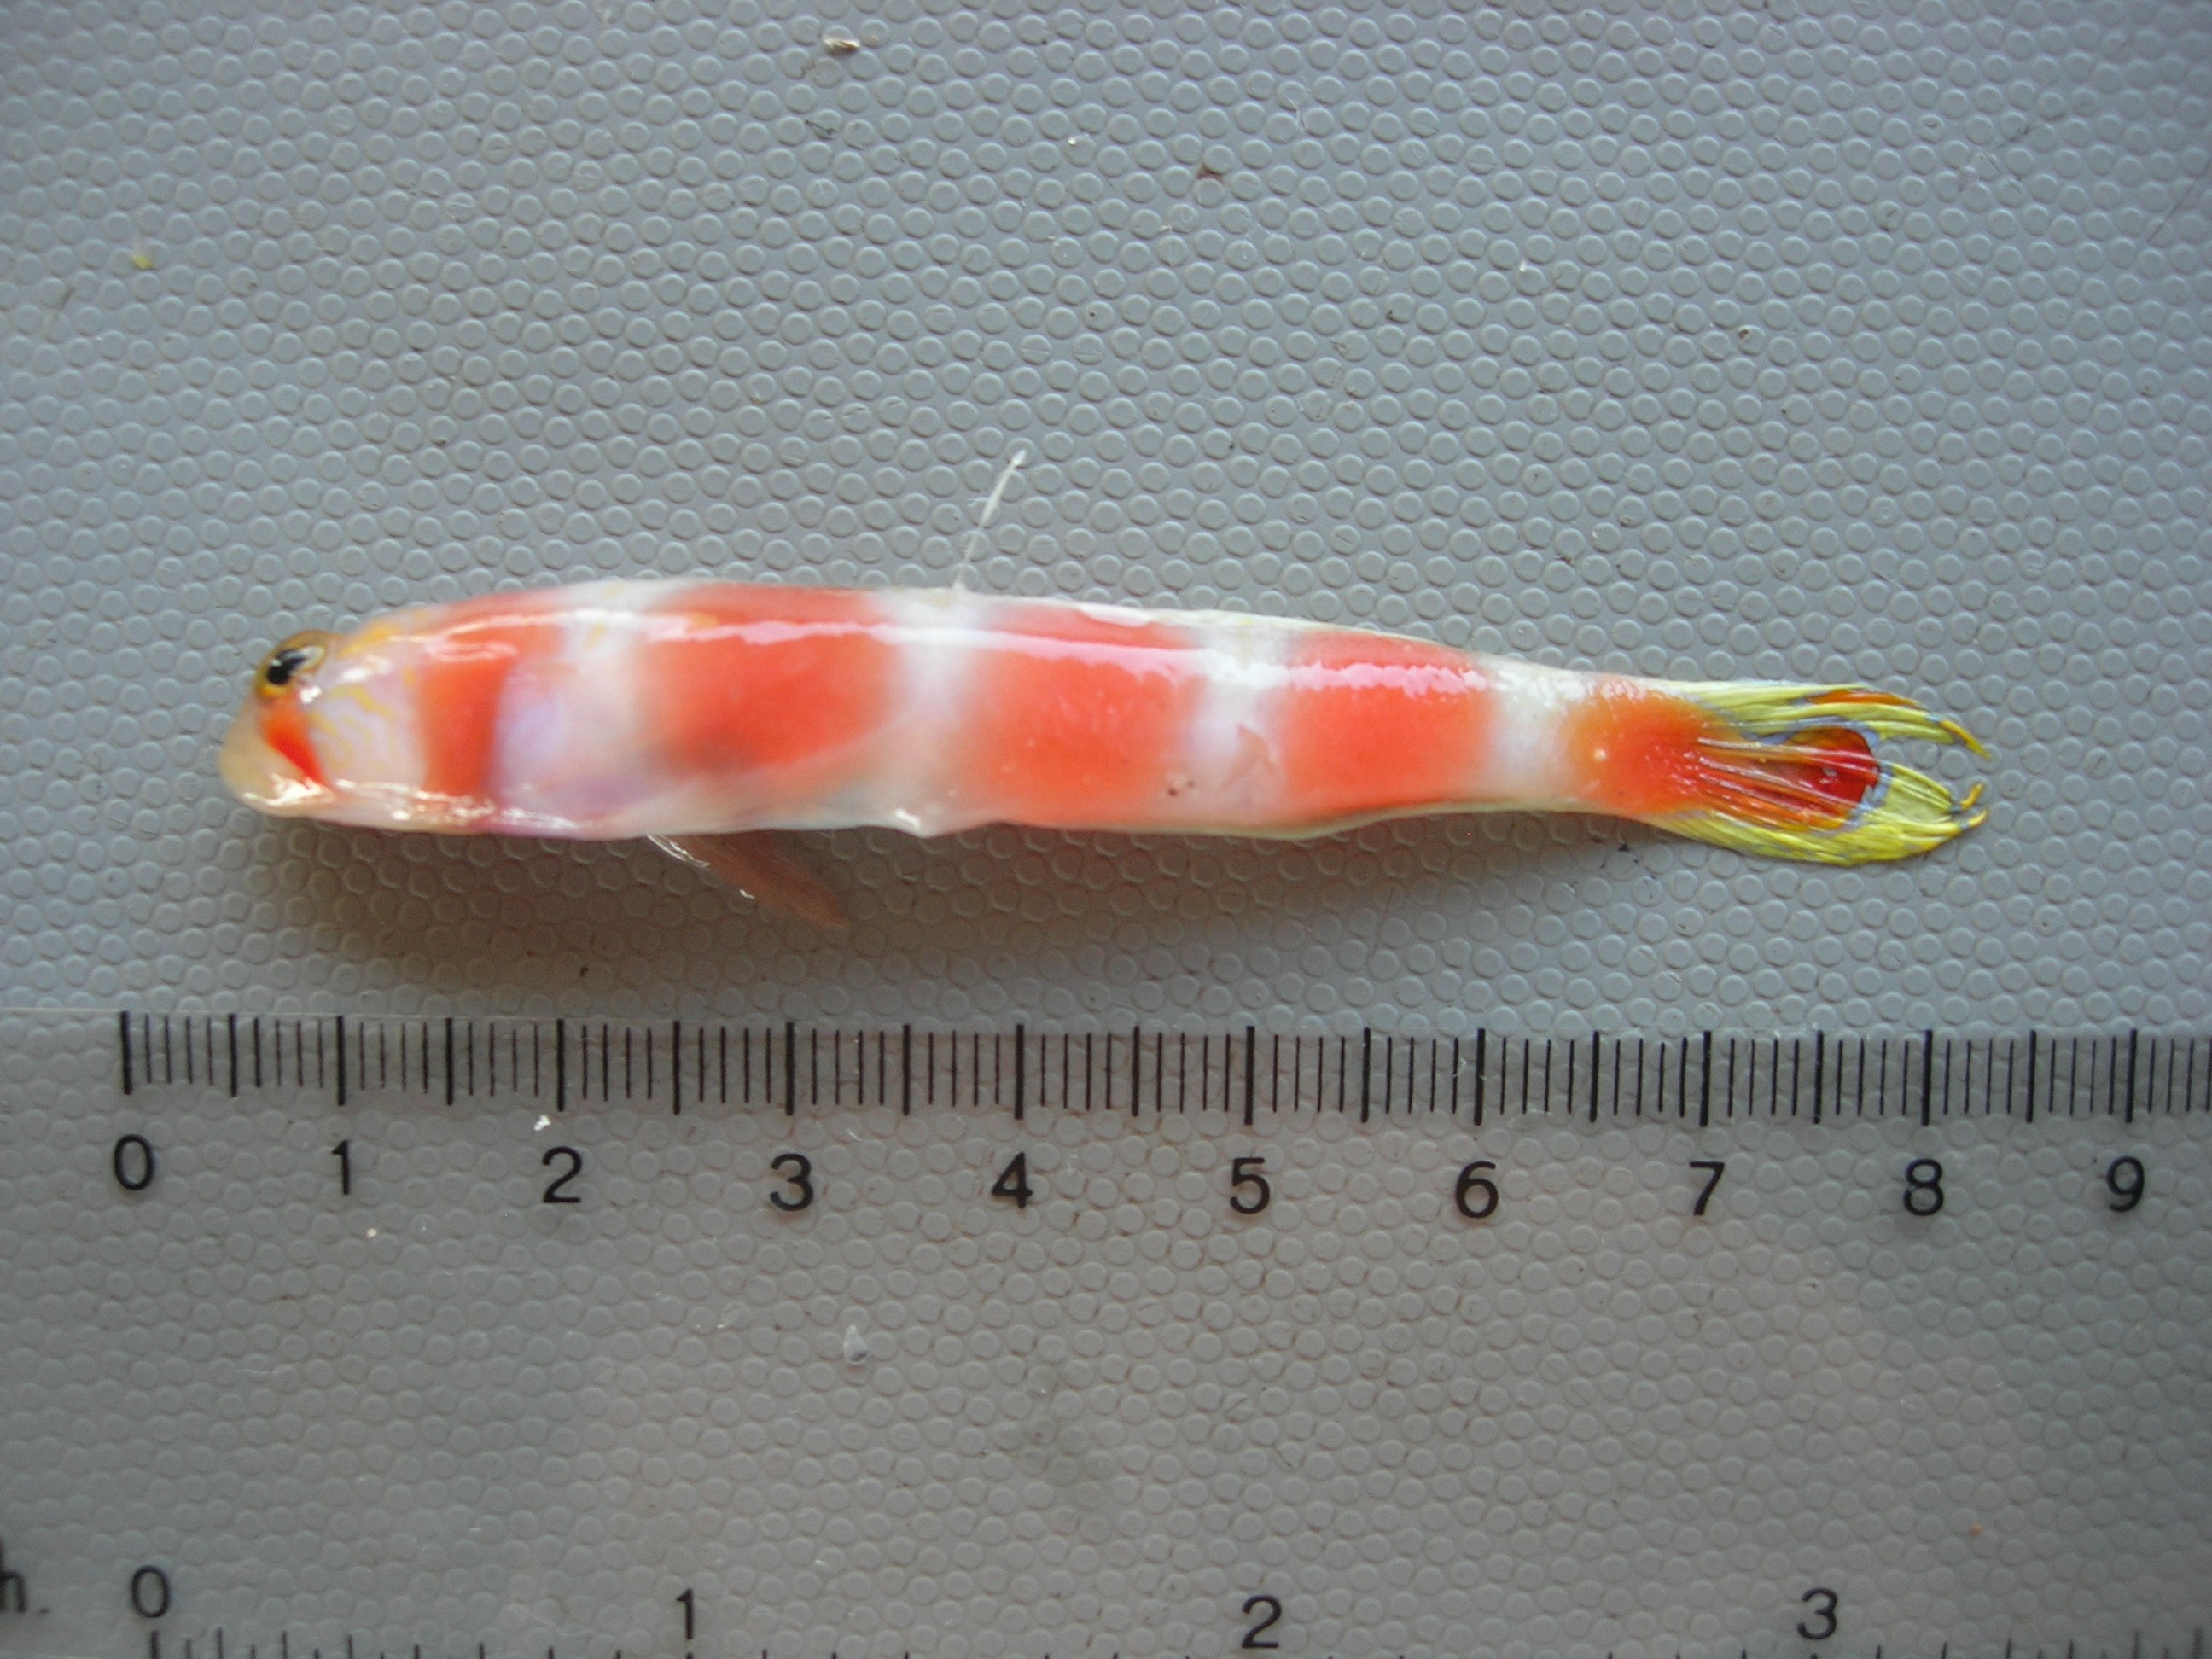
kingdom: Animalia
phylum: Chordata
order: Perciformes
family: Gobiidae
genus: Amblyeleotris
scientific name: Amblyeleotris aurora
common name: Pinkbar goby
